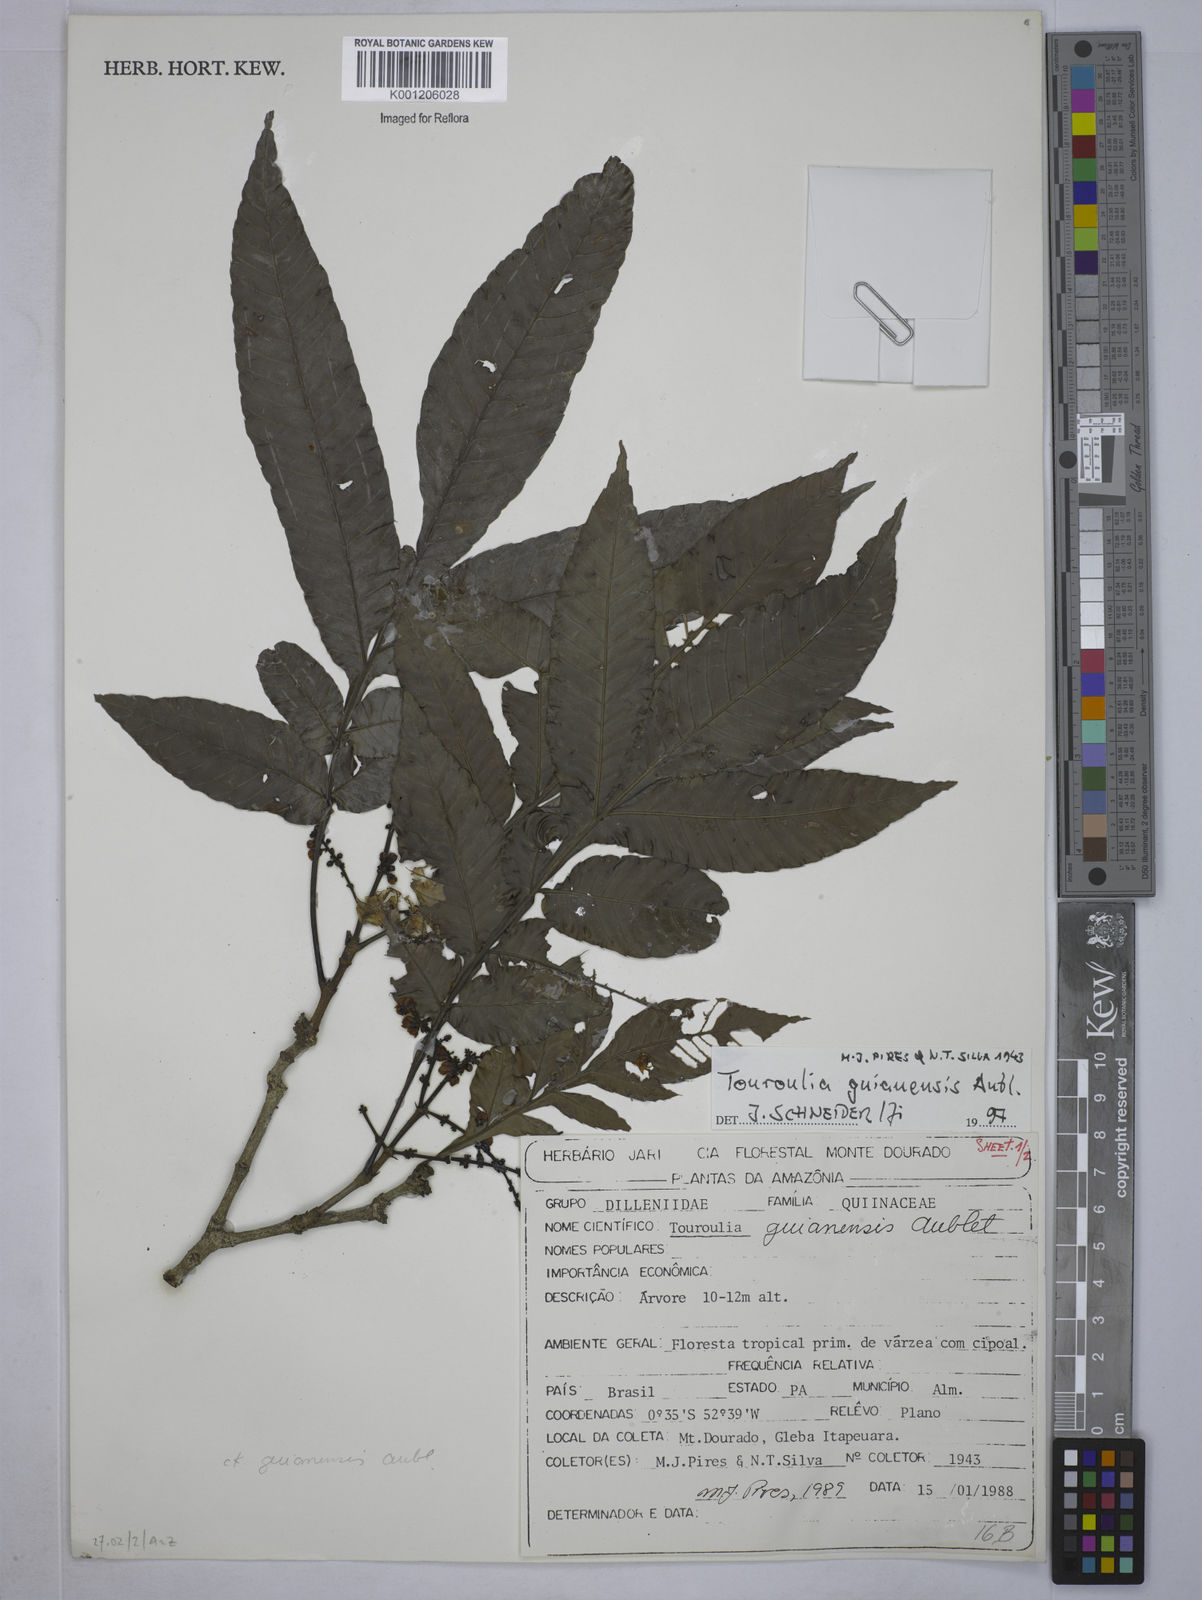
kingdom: Plantae
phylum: Tracheophyta
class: Magnoliopsida
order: Malpighiales
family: Quiinaceae
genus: Touroulia
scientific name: Touroulia guianensis
